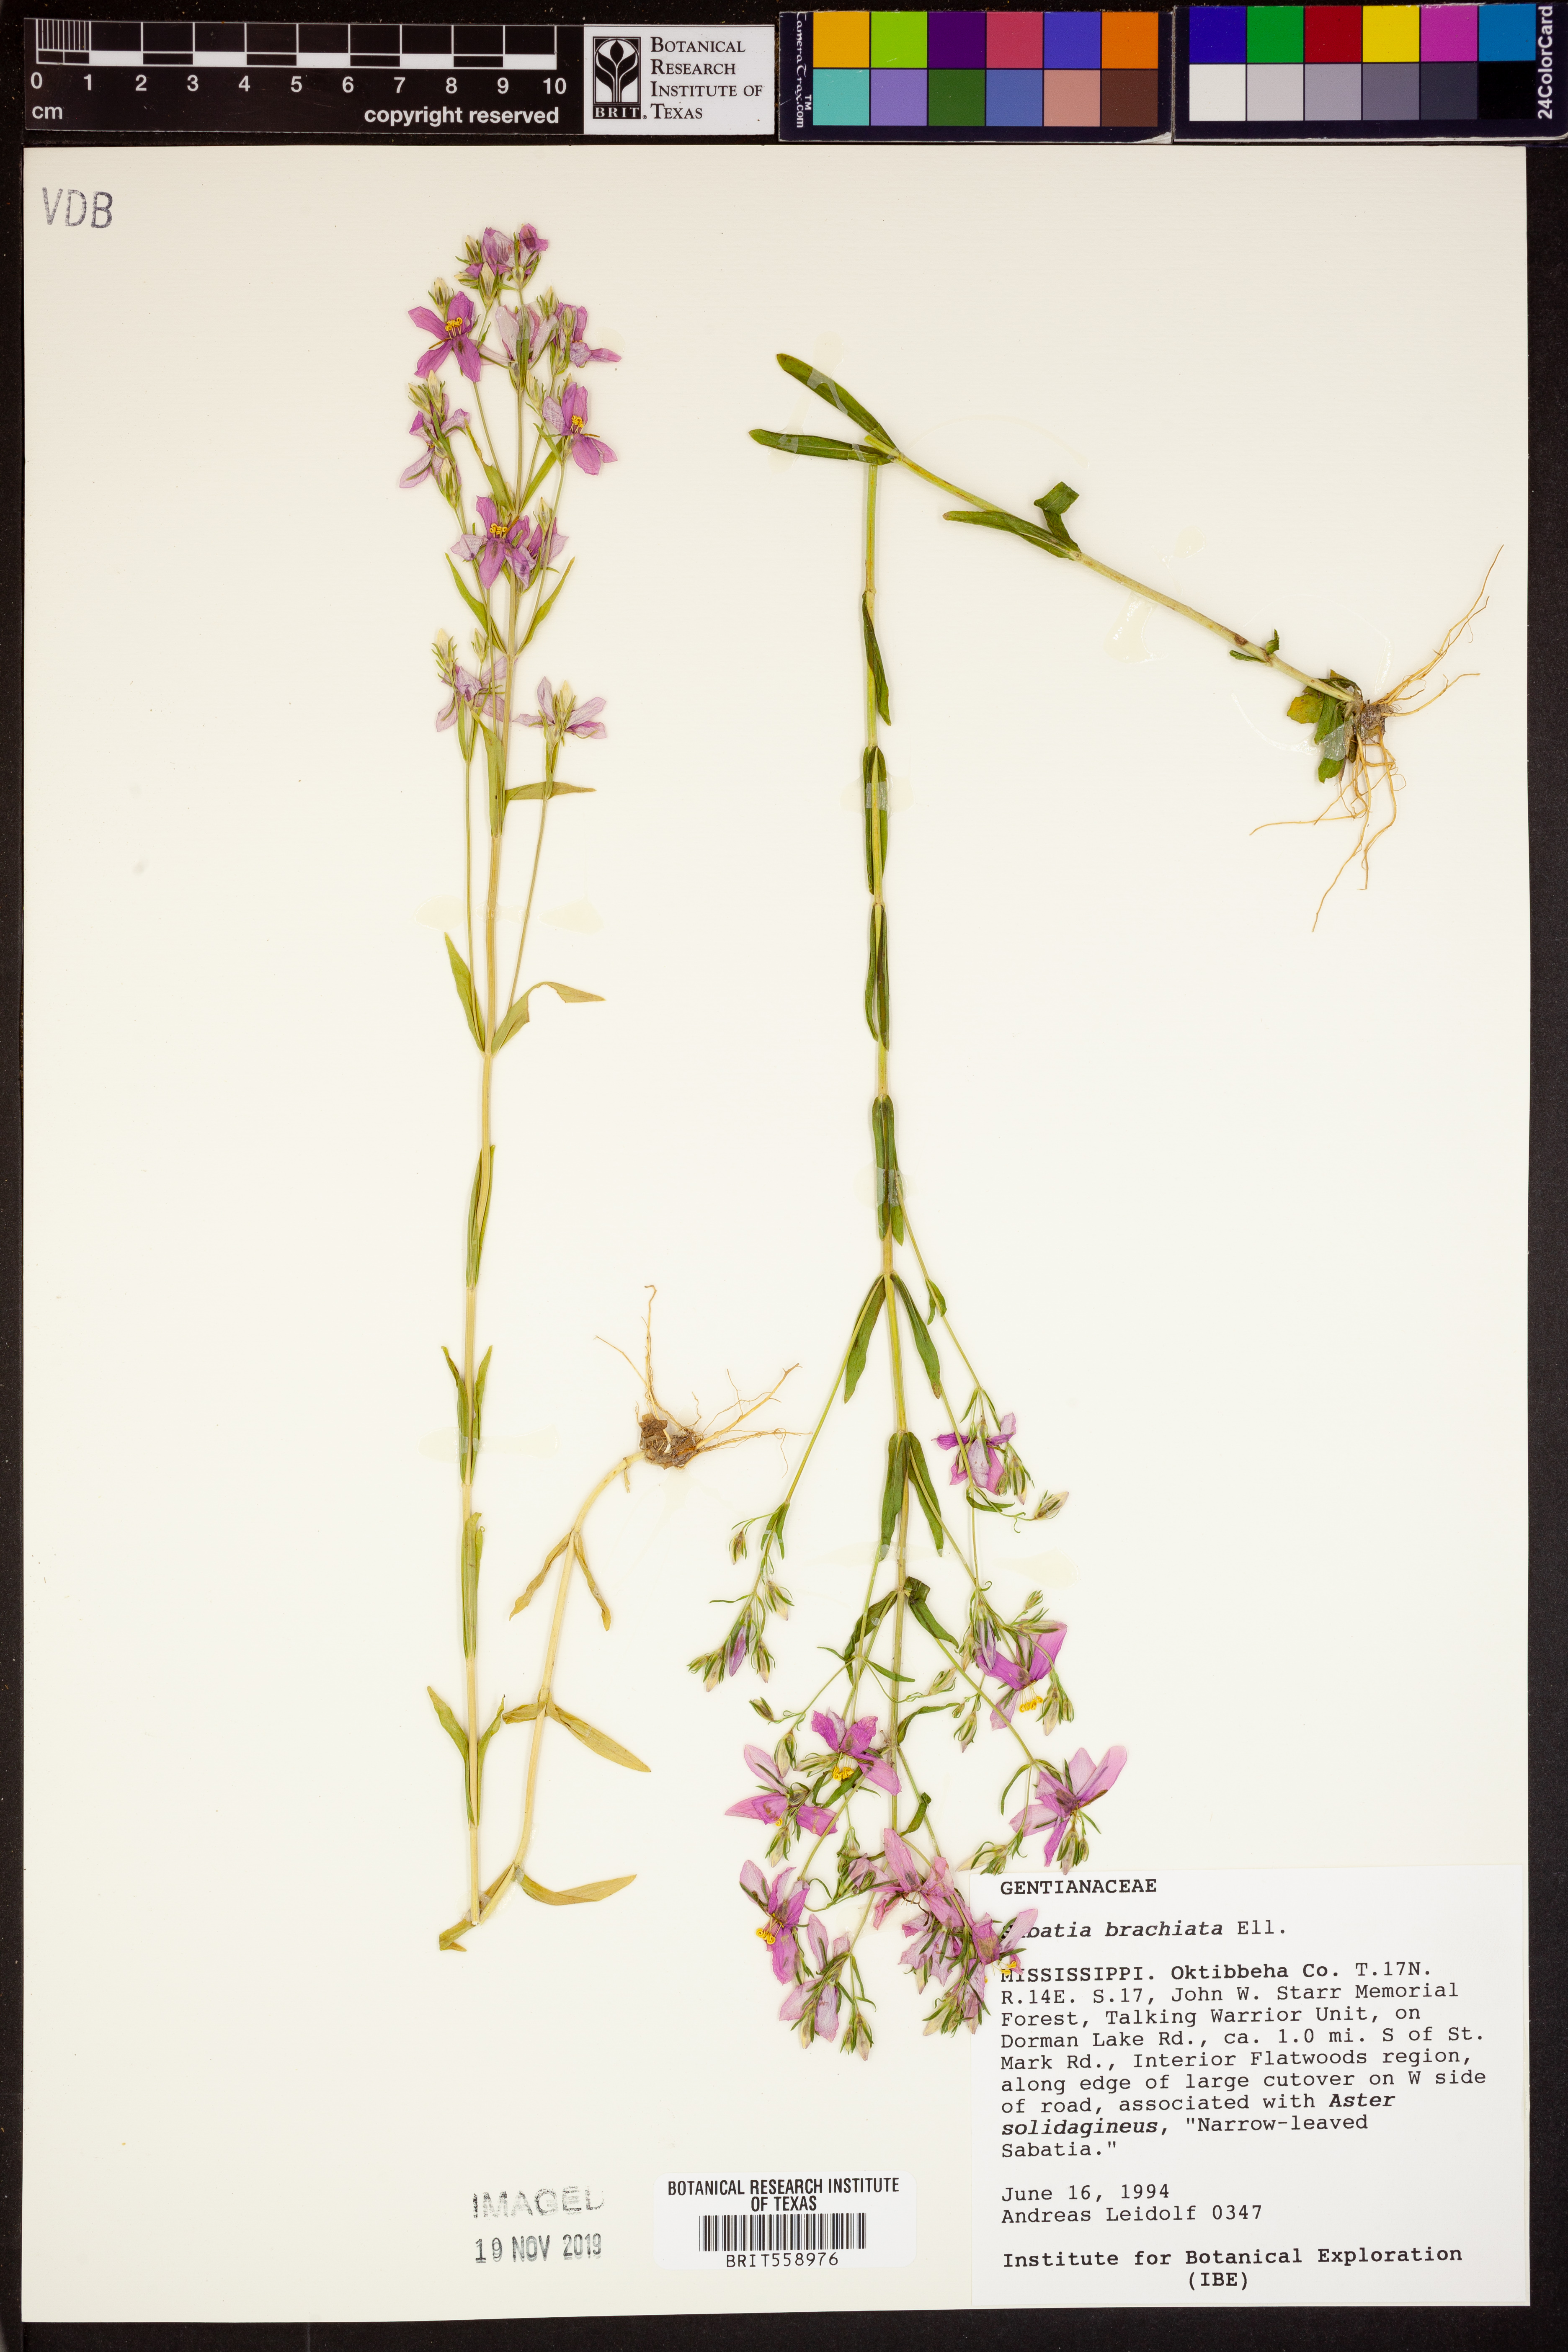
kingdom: Plantae
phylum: Tracheophyta
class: Magnoliopsida
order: Gentianales
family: Gentianaceae
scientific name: Gentianaceae
